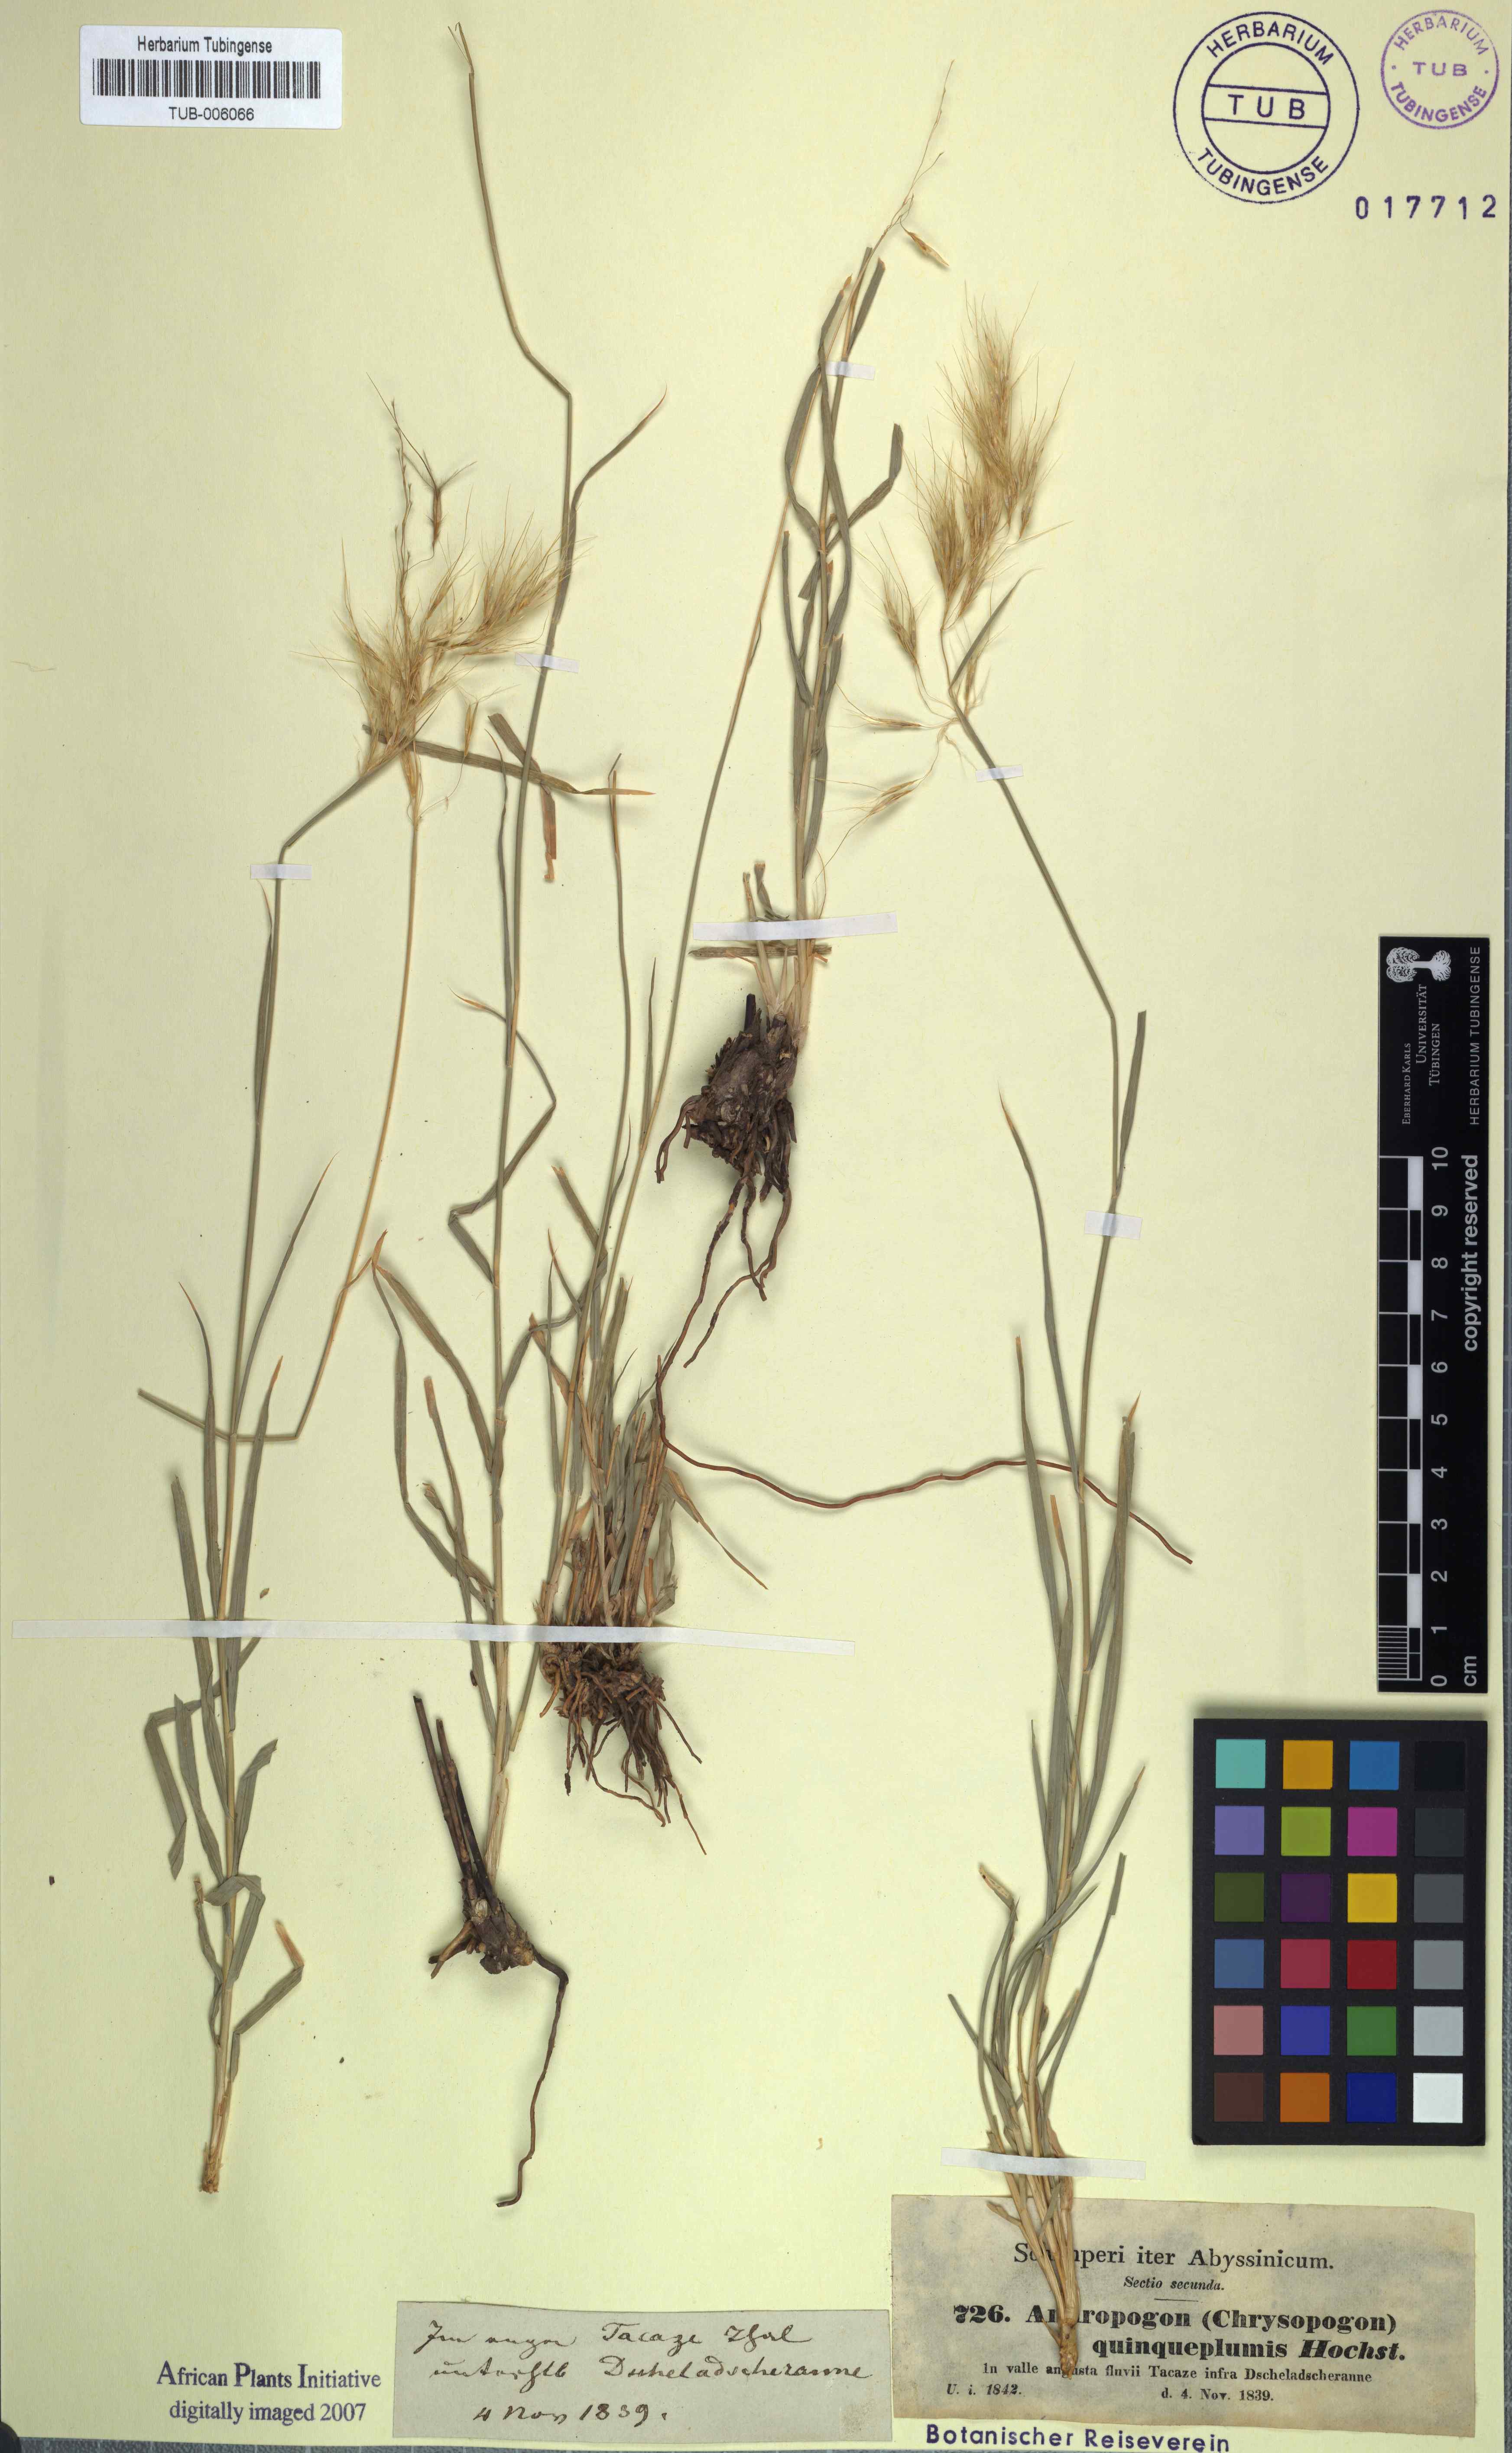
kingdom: Plantae
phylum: Tracheophyta
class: Liliopsida
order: Poales
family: Poaceae
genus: Chrysopogon
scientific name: Chrysopogon serrulatus
